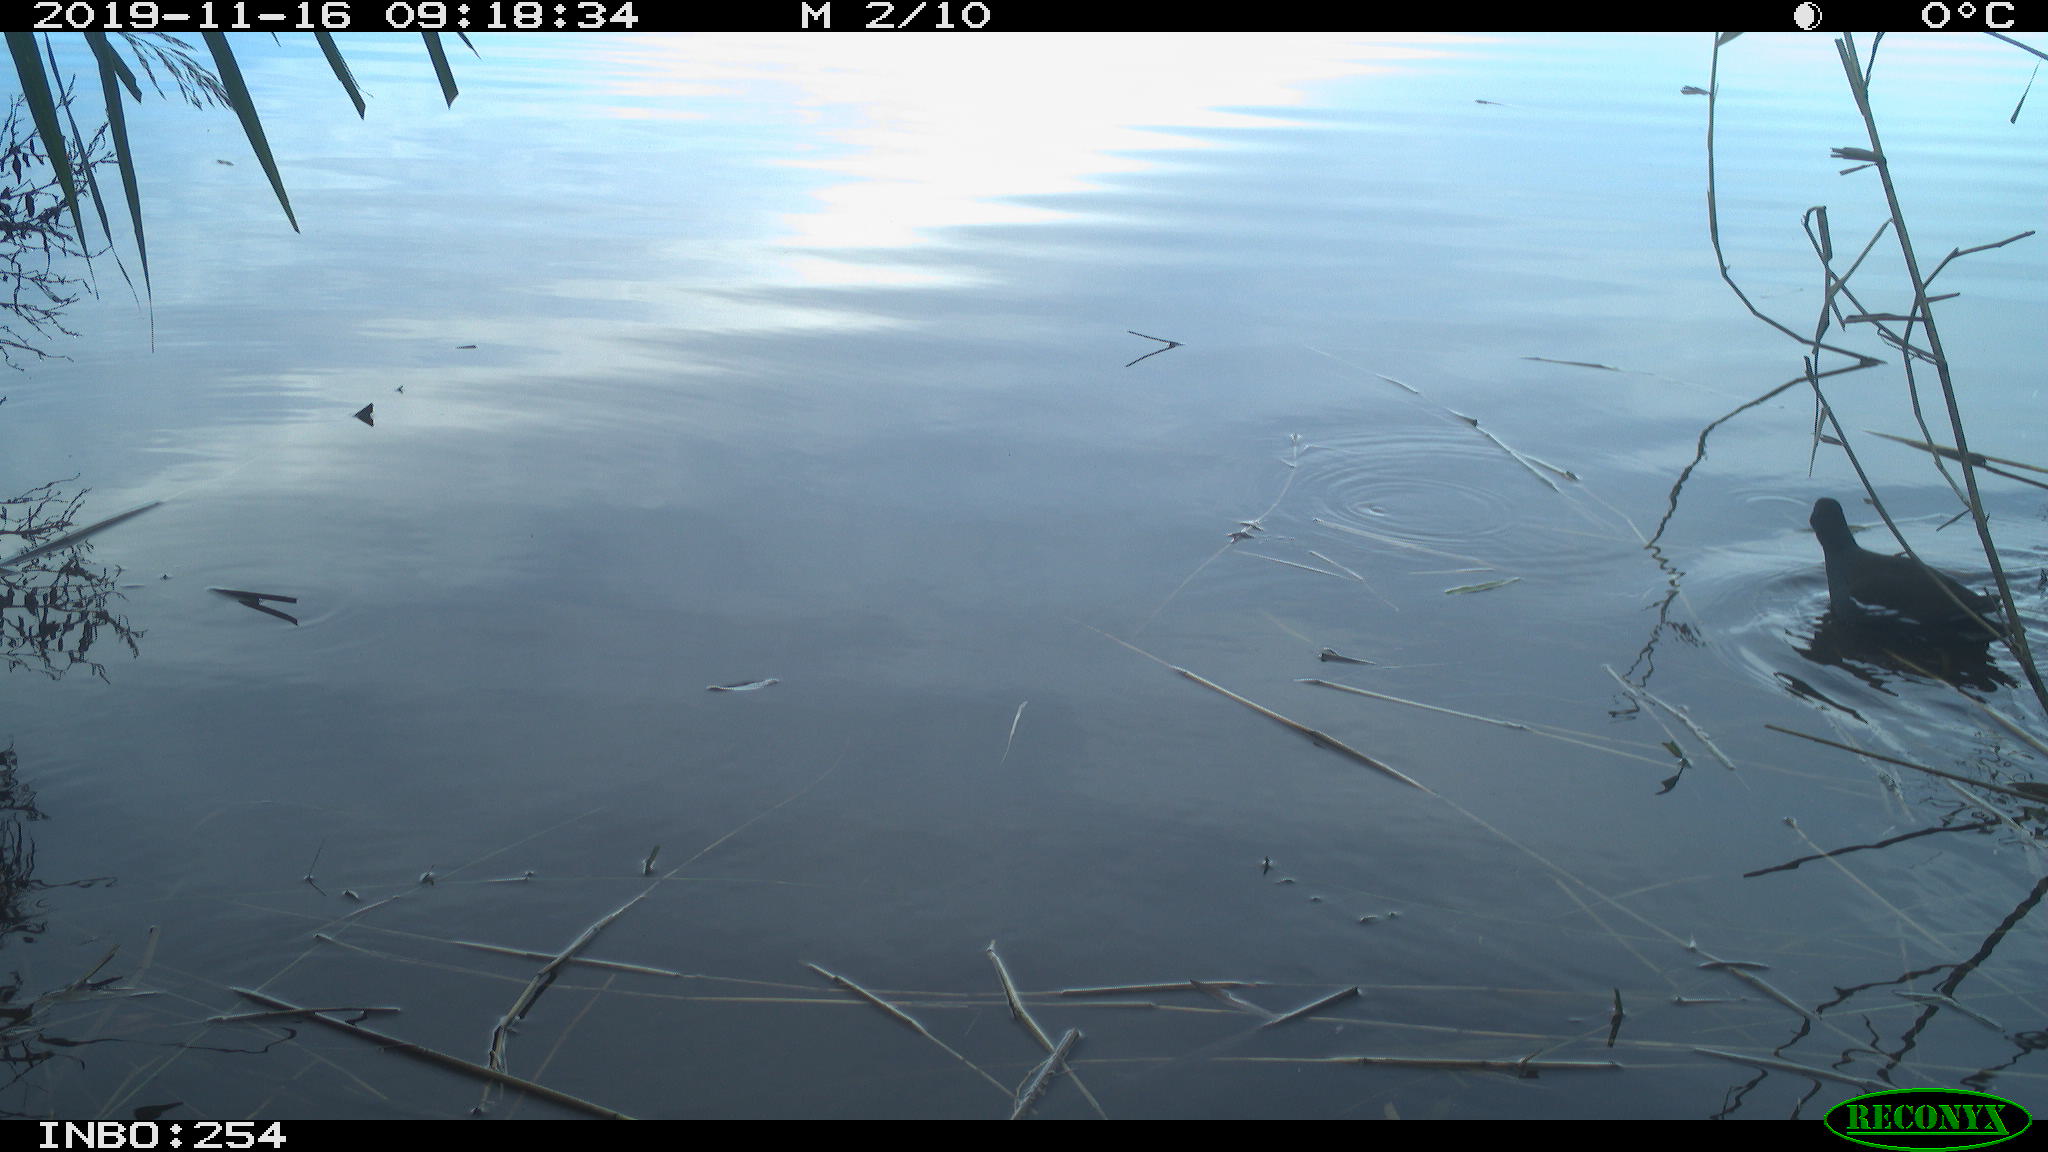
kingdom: Animalia
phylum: Chordata
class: Aves
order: Gruiformes
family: Rallidae
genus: Gallinula
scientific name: Gallinula chloropus
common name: Common moorhen
